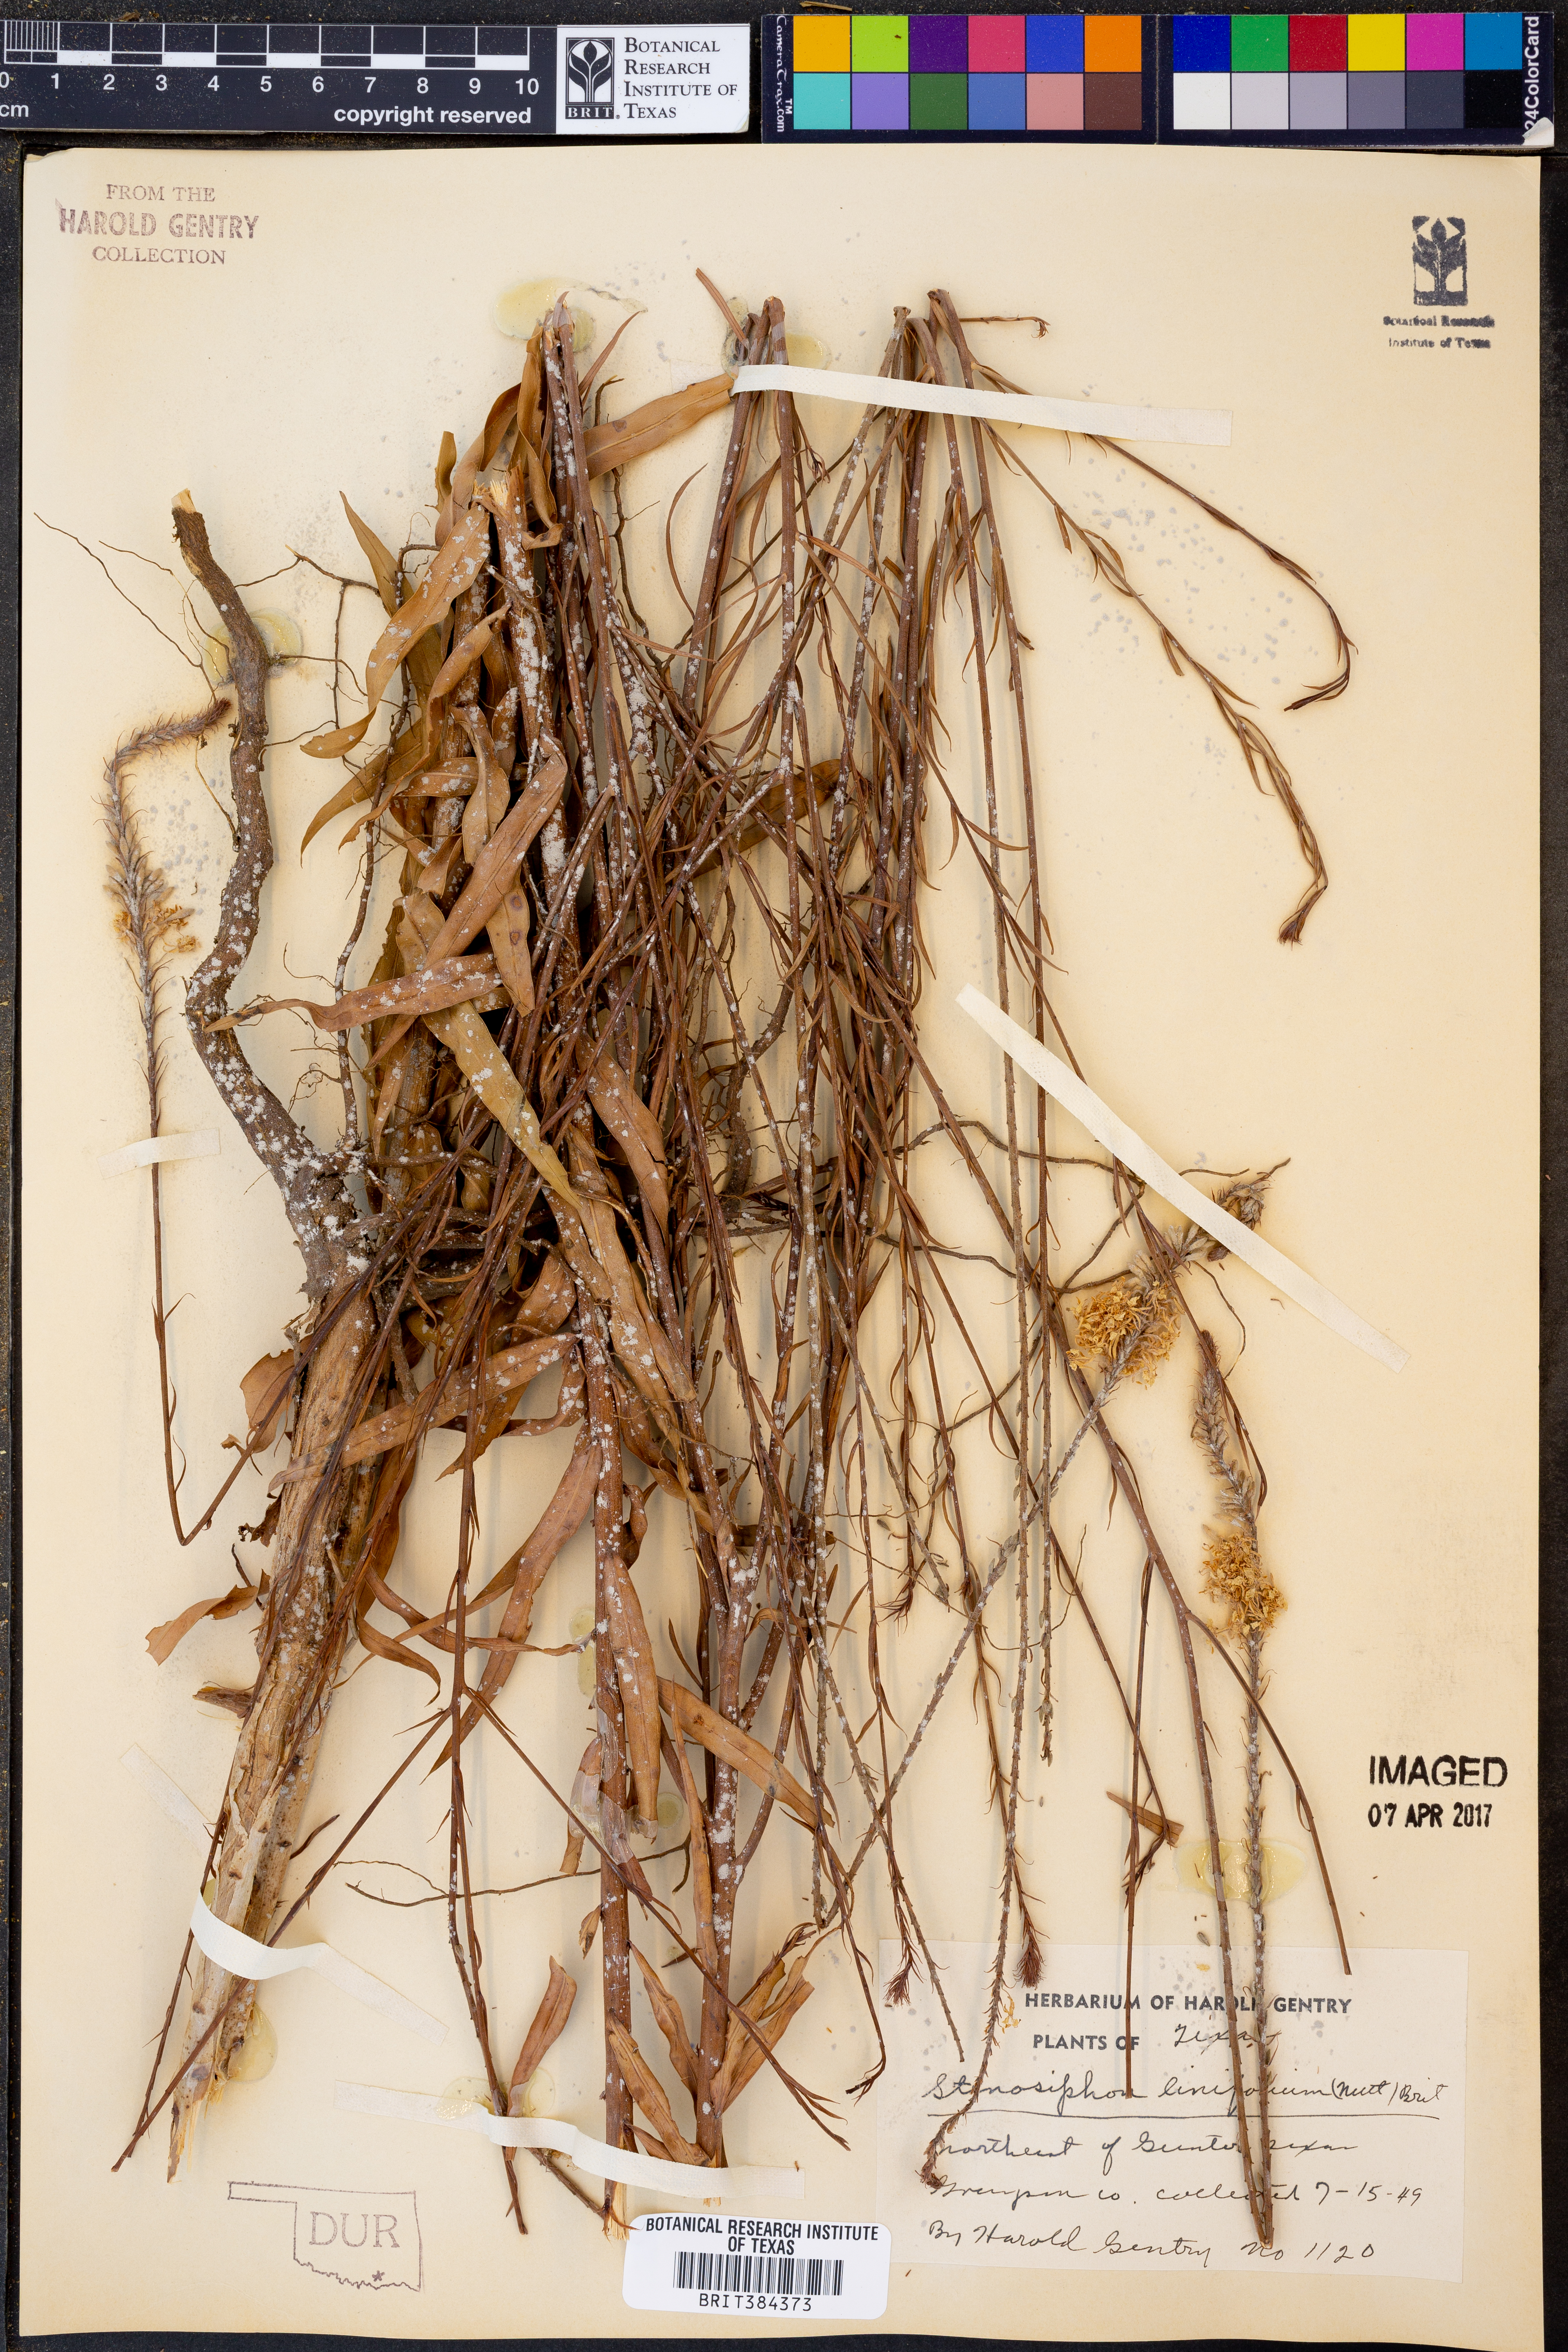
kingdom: Plantae
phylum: Tracheophyta
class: Magnoliopsida
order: Myrtales
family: Onagraceae
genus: Oenothera
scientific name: Oenothera glaucifolia
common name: False gaura
